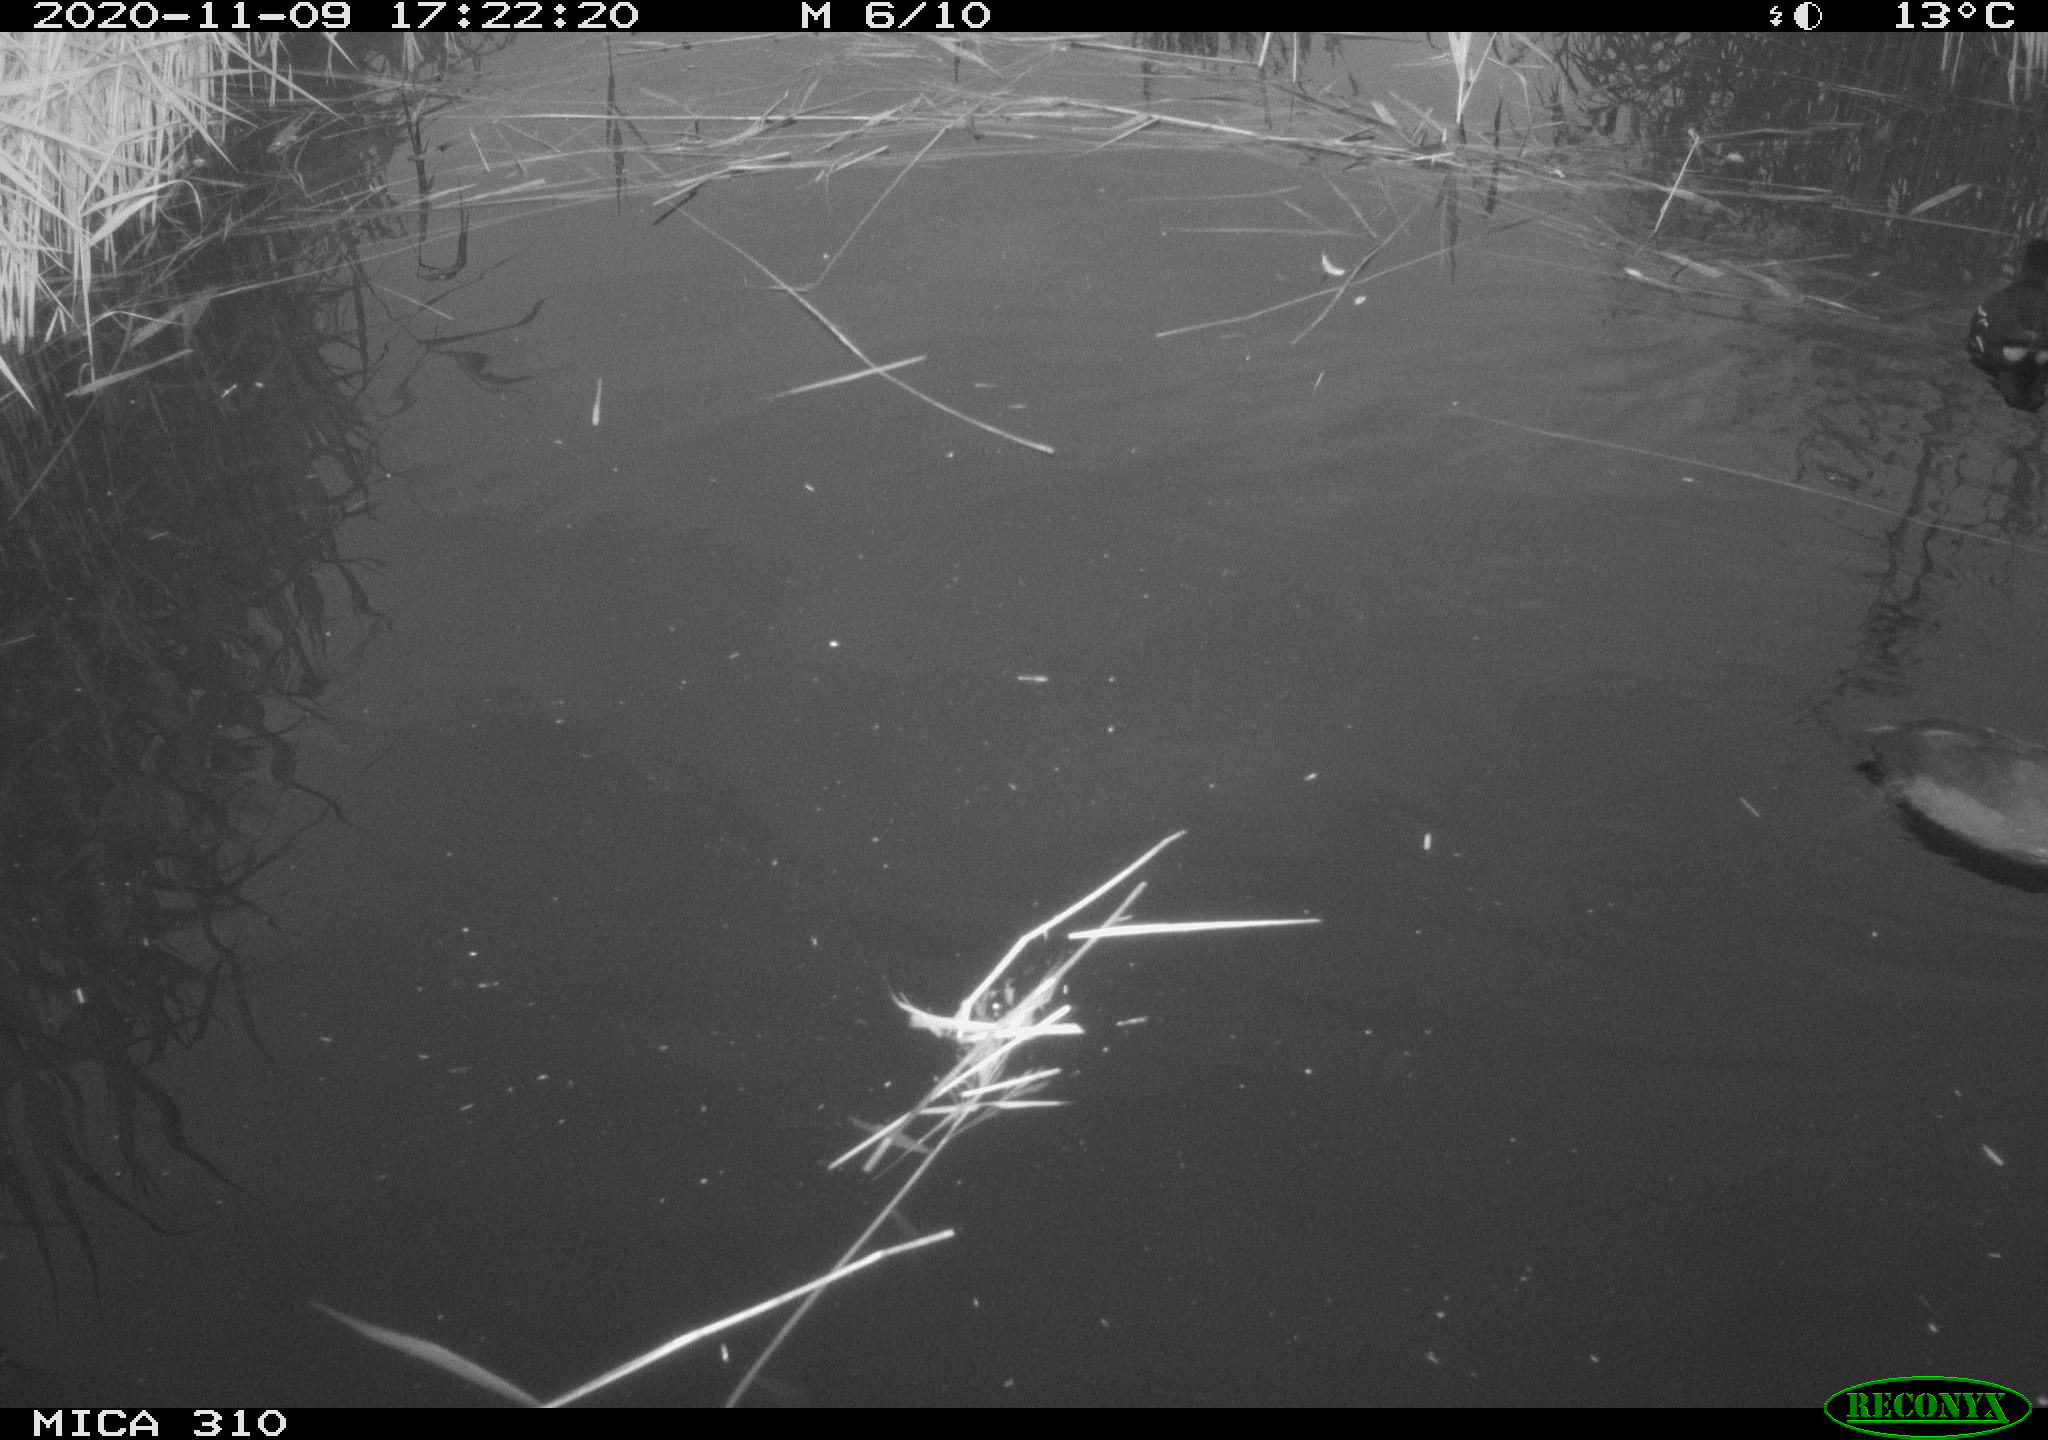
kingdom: Animalia
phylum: Chordata
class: Aves
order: Gruiformes
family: Rallidae
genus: Fulica
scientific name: Fulica atra
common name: Eurasian coot
